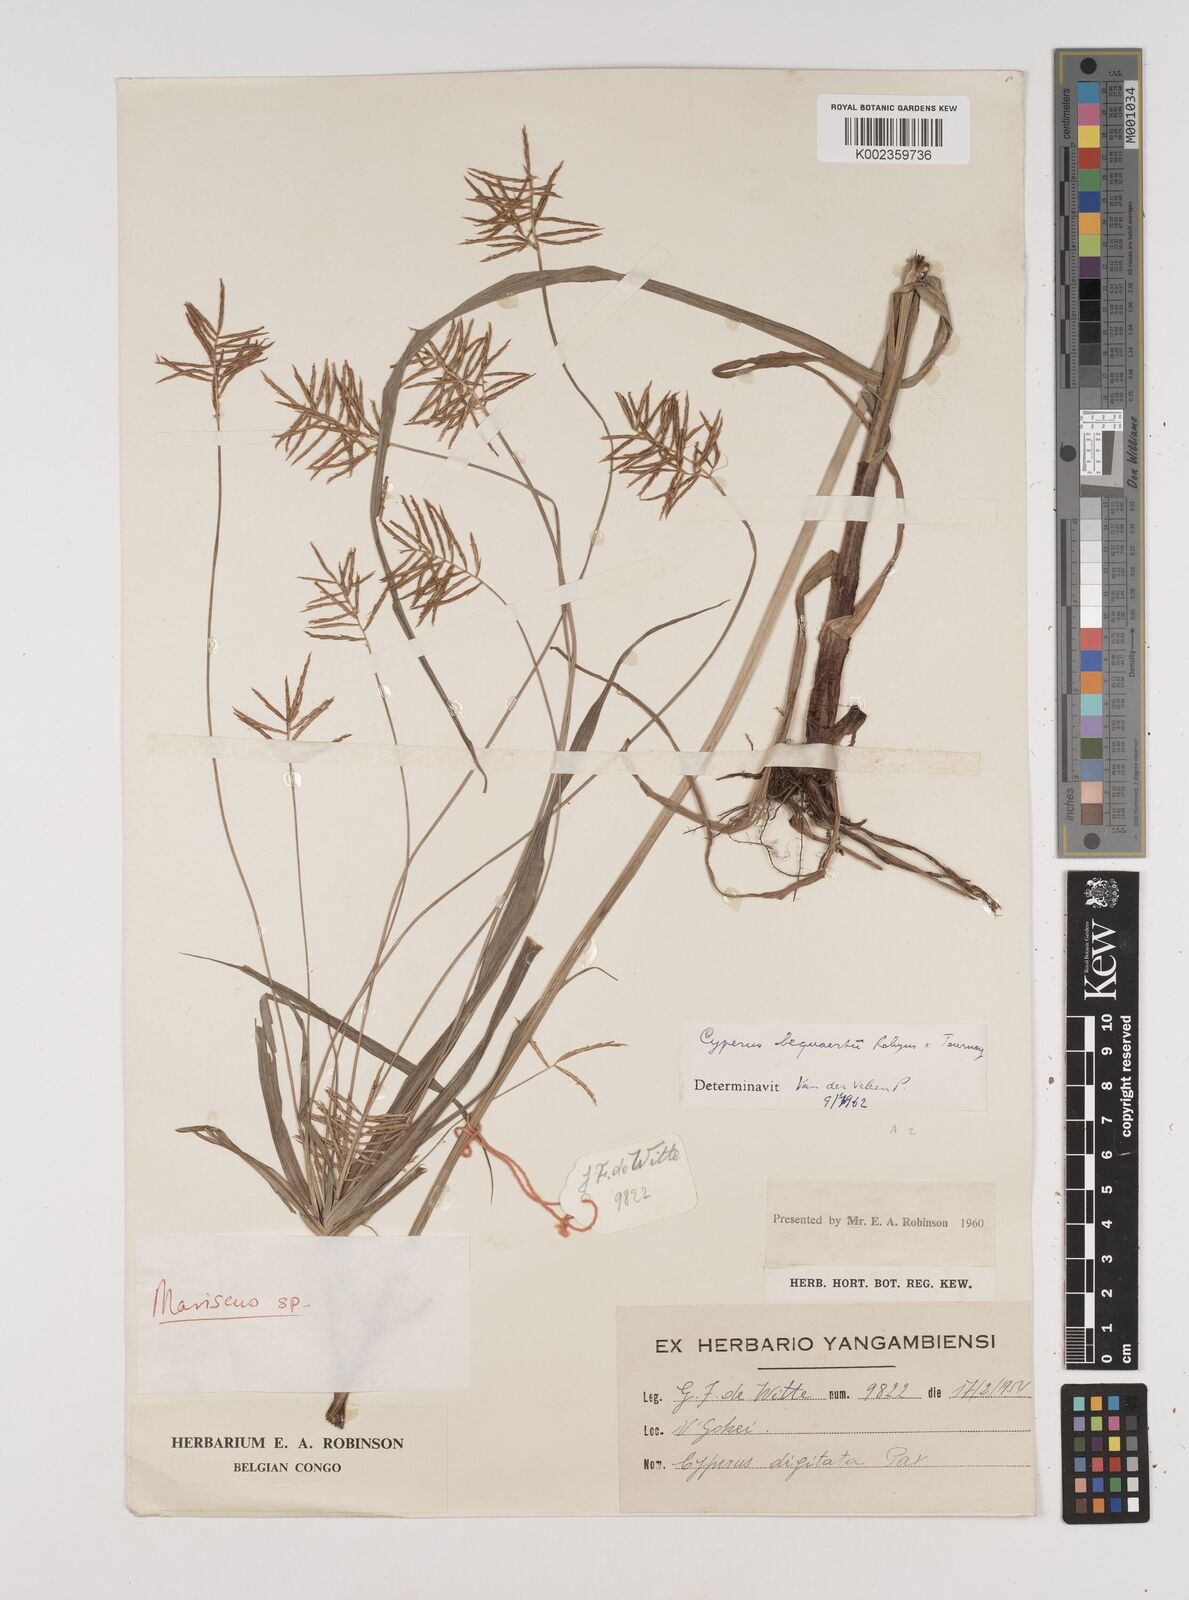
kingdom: Plantae
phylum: Tracheophyta
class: Liliopsida
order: Poales
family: Cyperaceae
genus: Cyperus
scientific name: Cyperus ferrugineoviridis
